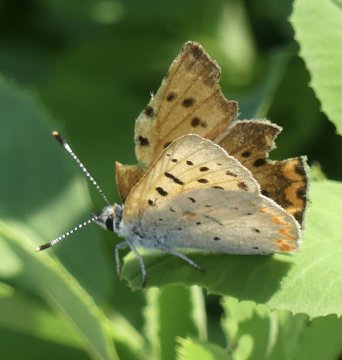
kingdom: Animalia
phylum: Arthropoda
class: Insecta
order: Lepidoptera
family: Sesiidae
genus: Sesia
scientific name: Sesia Lycaena helloides
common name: Purplish Copper
